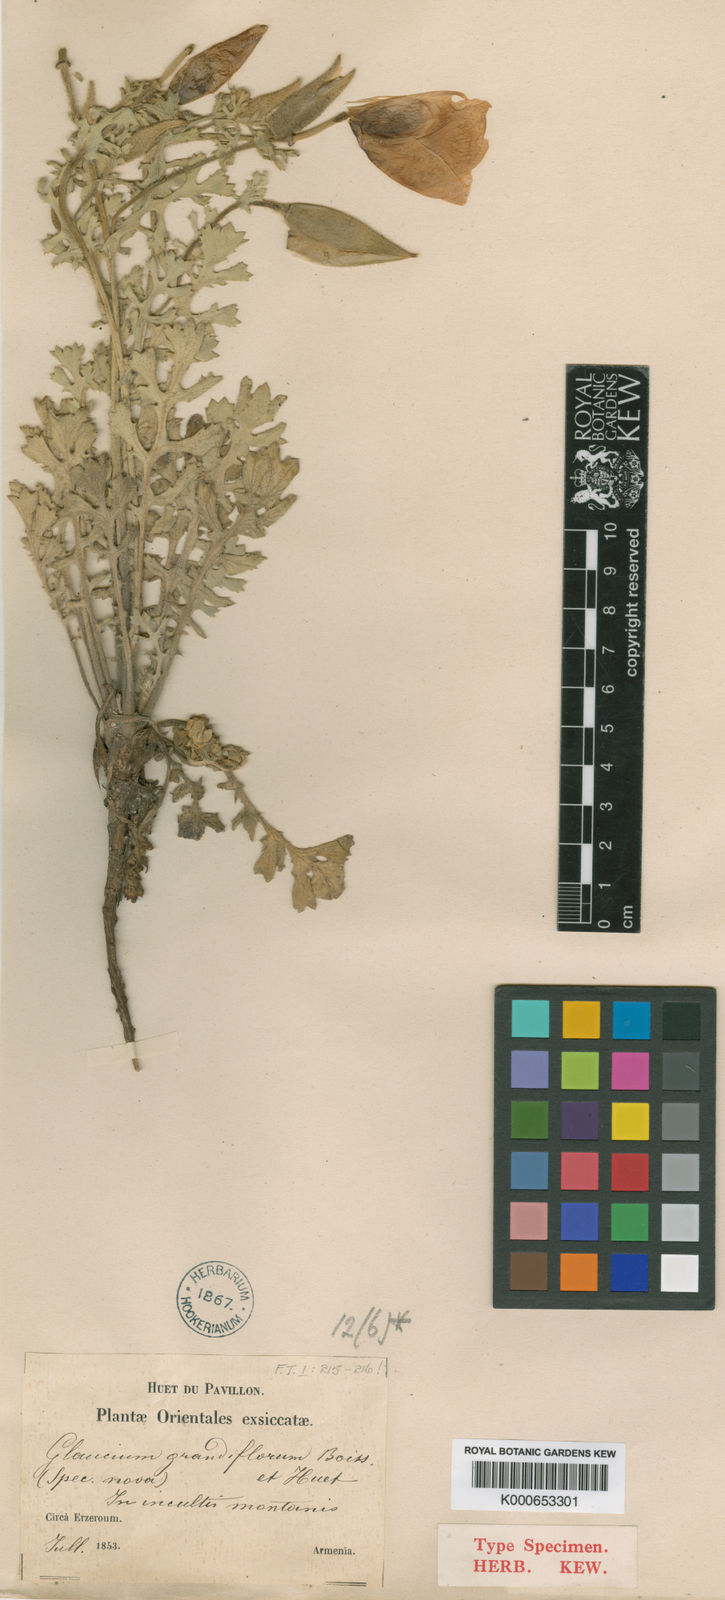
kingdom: Plantae
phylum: Tracheophyta
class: Magnoliopsida
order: Ranunculales
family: Papaveraceae
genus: Glaucium
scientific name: Glaucium grandiflorum
